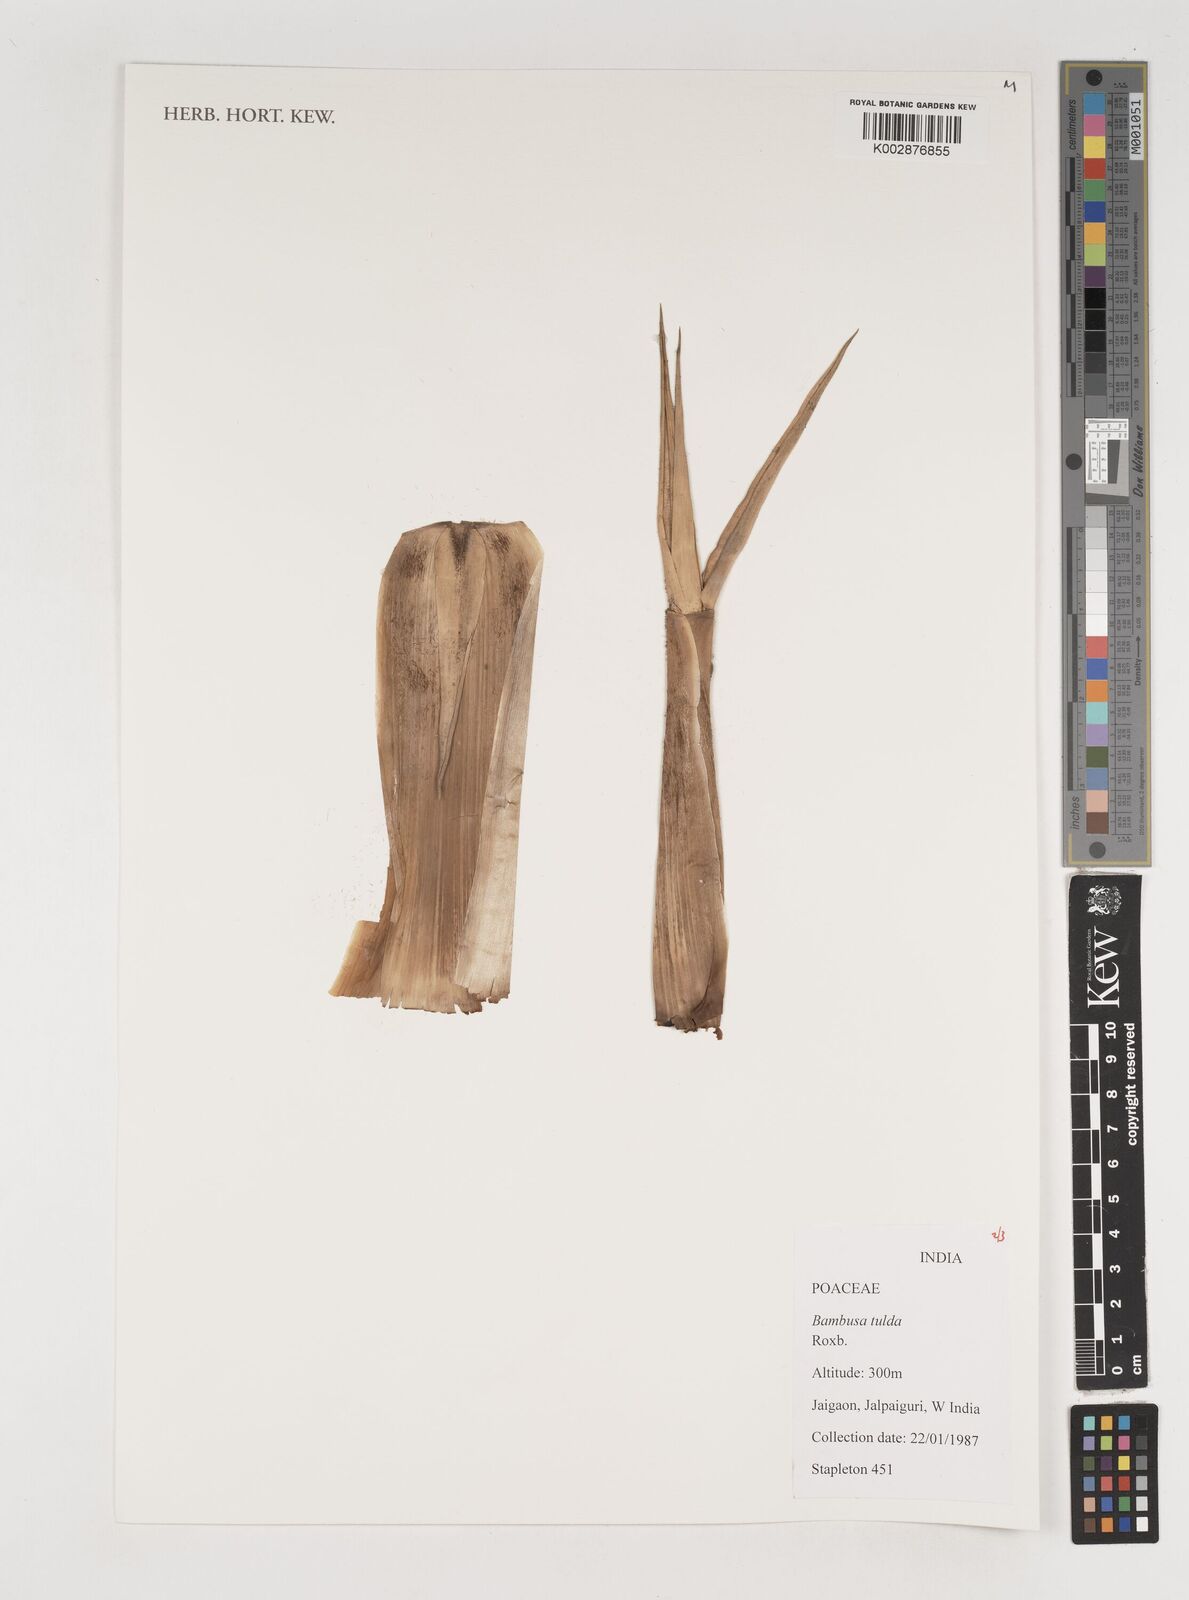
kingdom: Plantae
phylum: Tracheophyta
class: Liliopsida
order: Poales
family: Poaceae
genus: Bambusa
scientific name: Bambusa tulda
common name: Bengal bamboo
